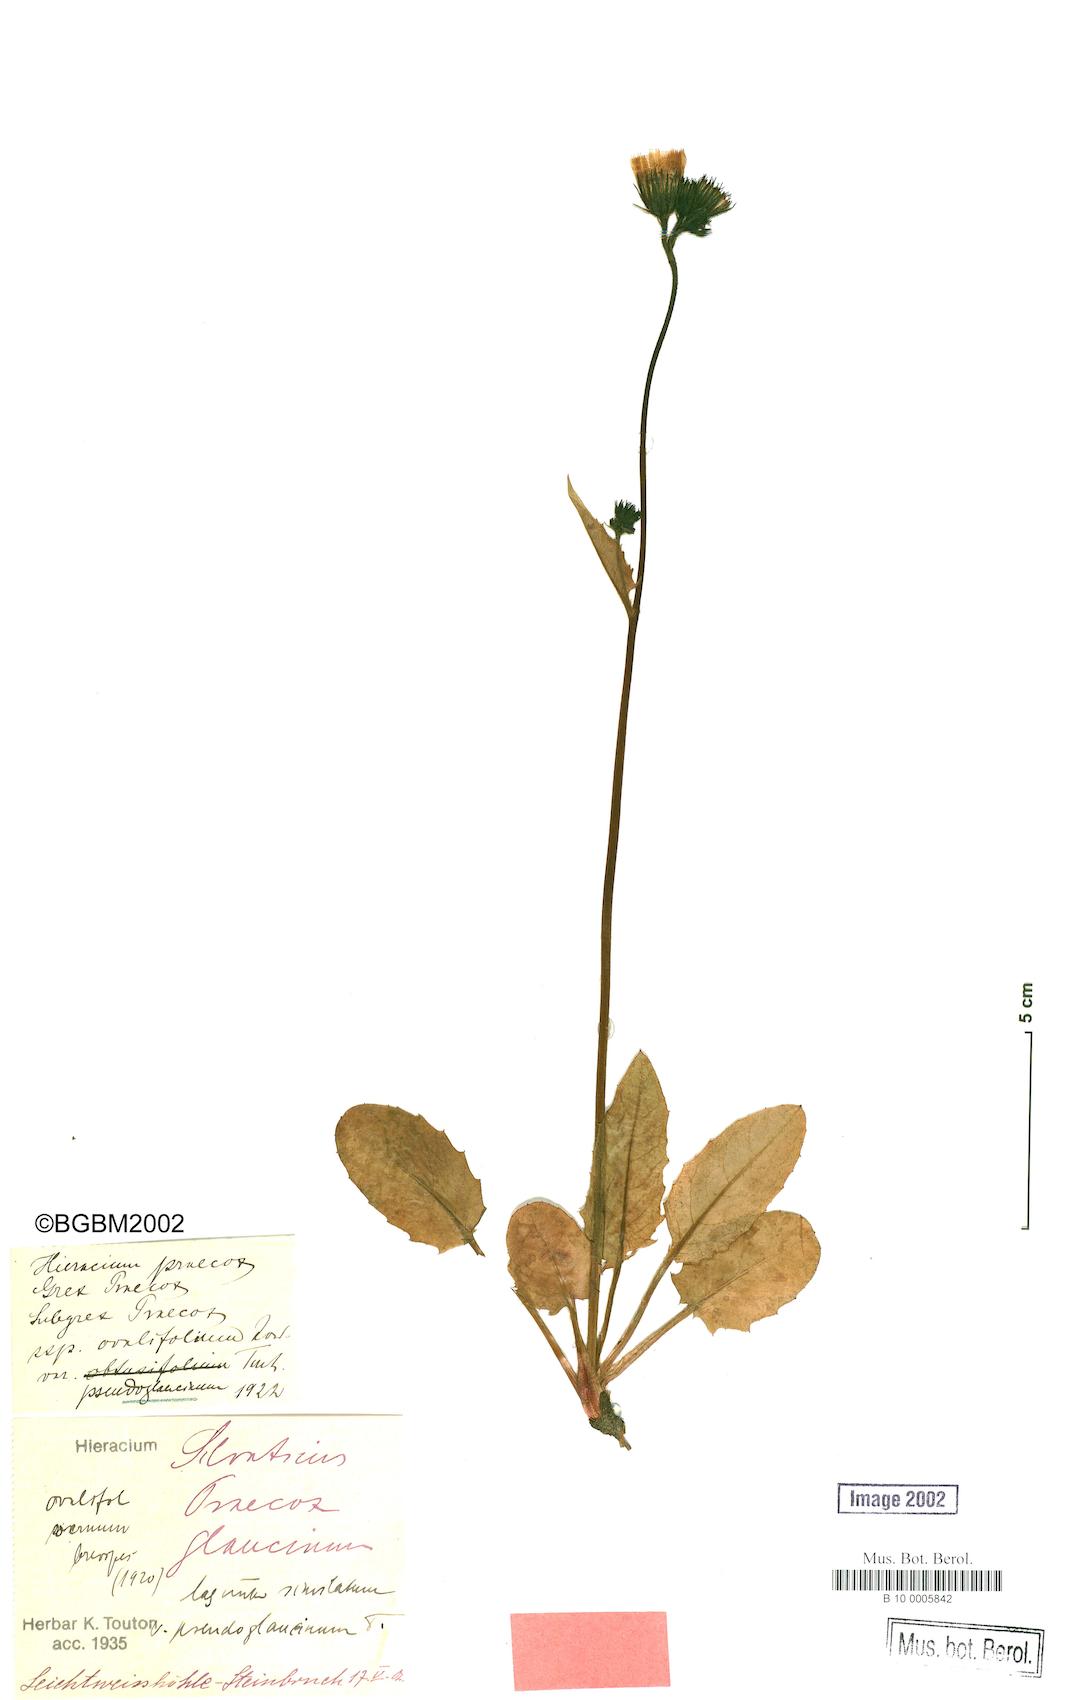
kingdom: Plantae
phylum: Tracheophyta
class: Magnoliopsida
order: Asterales
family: Asteraceae
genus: Hieracium
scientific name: Hieracium praecox
